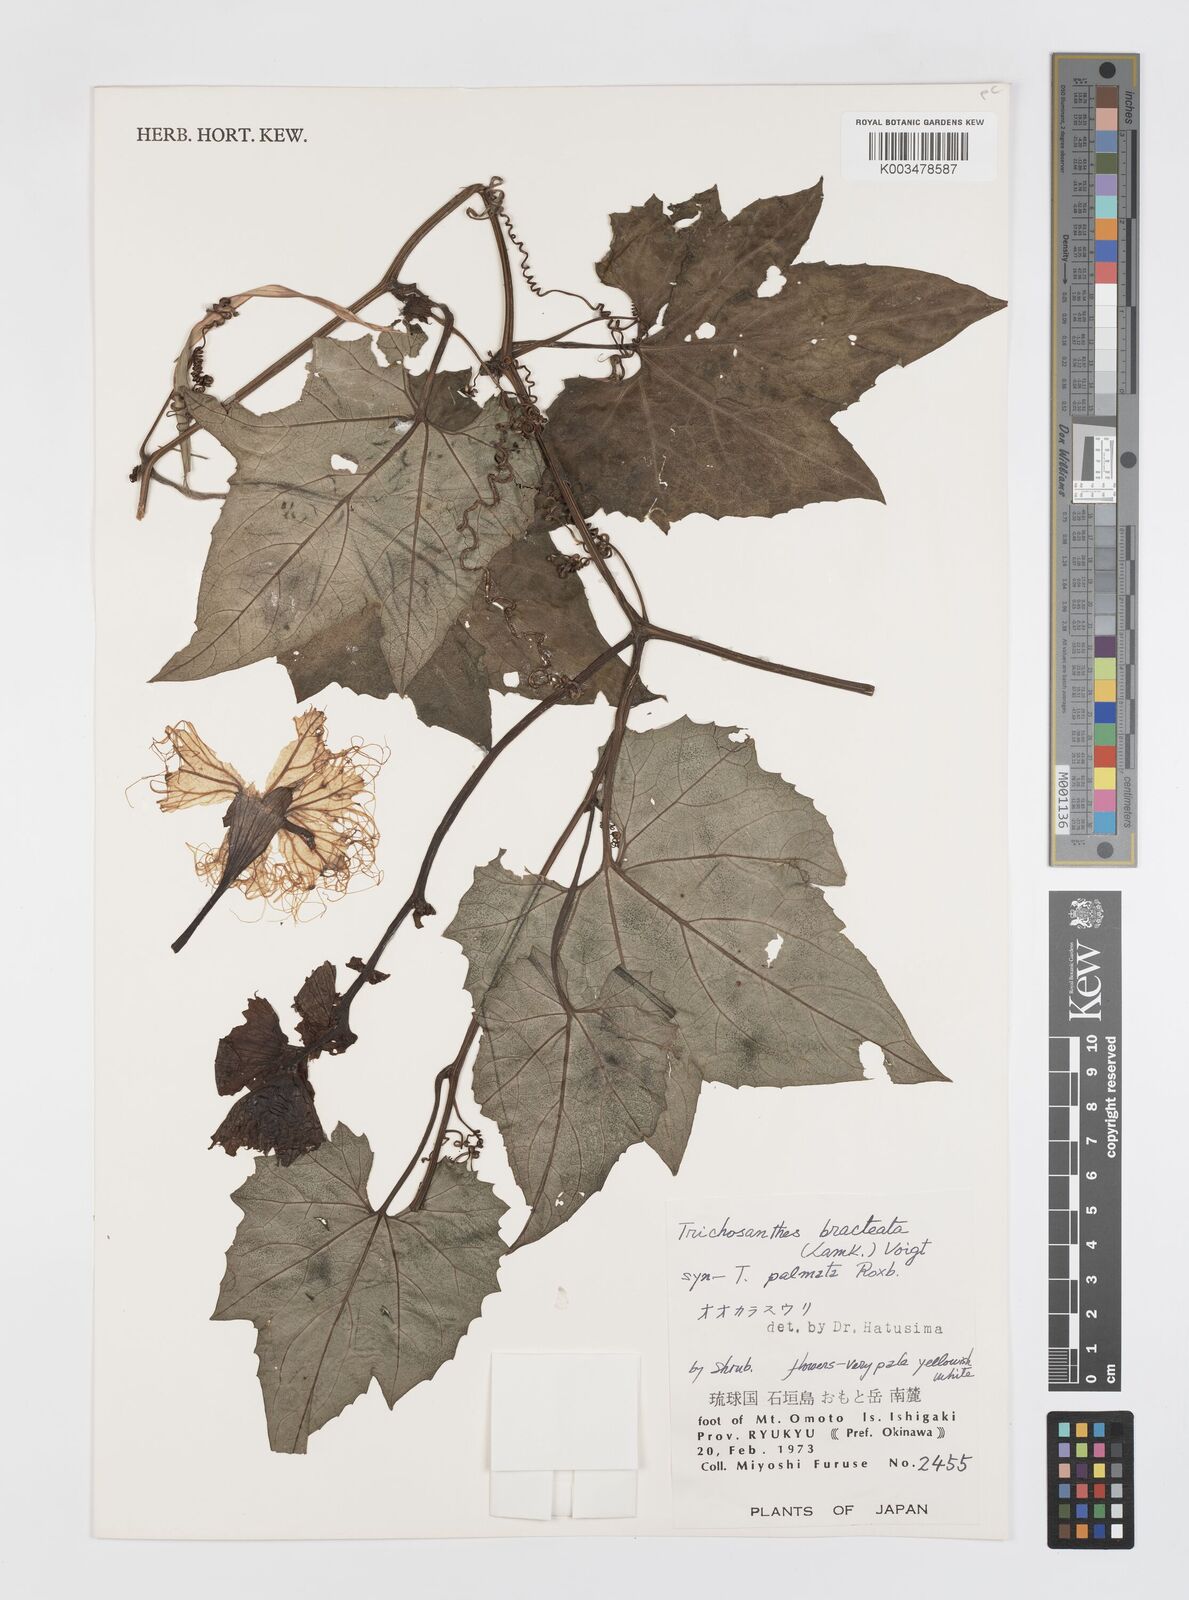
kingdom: Plantae
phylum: Tracheophyta
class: Magnoliopsida
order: Cucurbitales
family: Cucurbitaceae
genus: Trichosanthes
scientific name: Trichosanthes laceribractea
